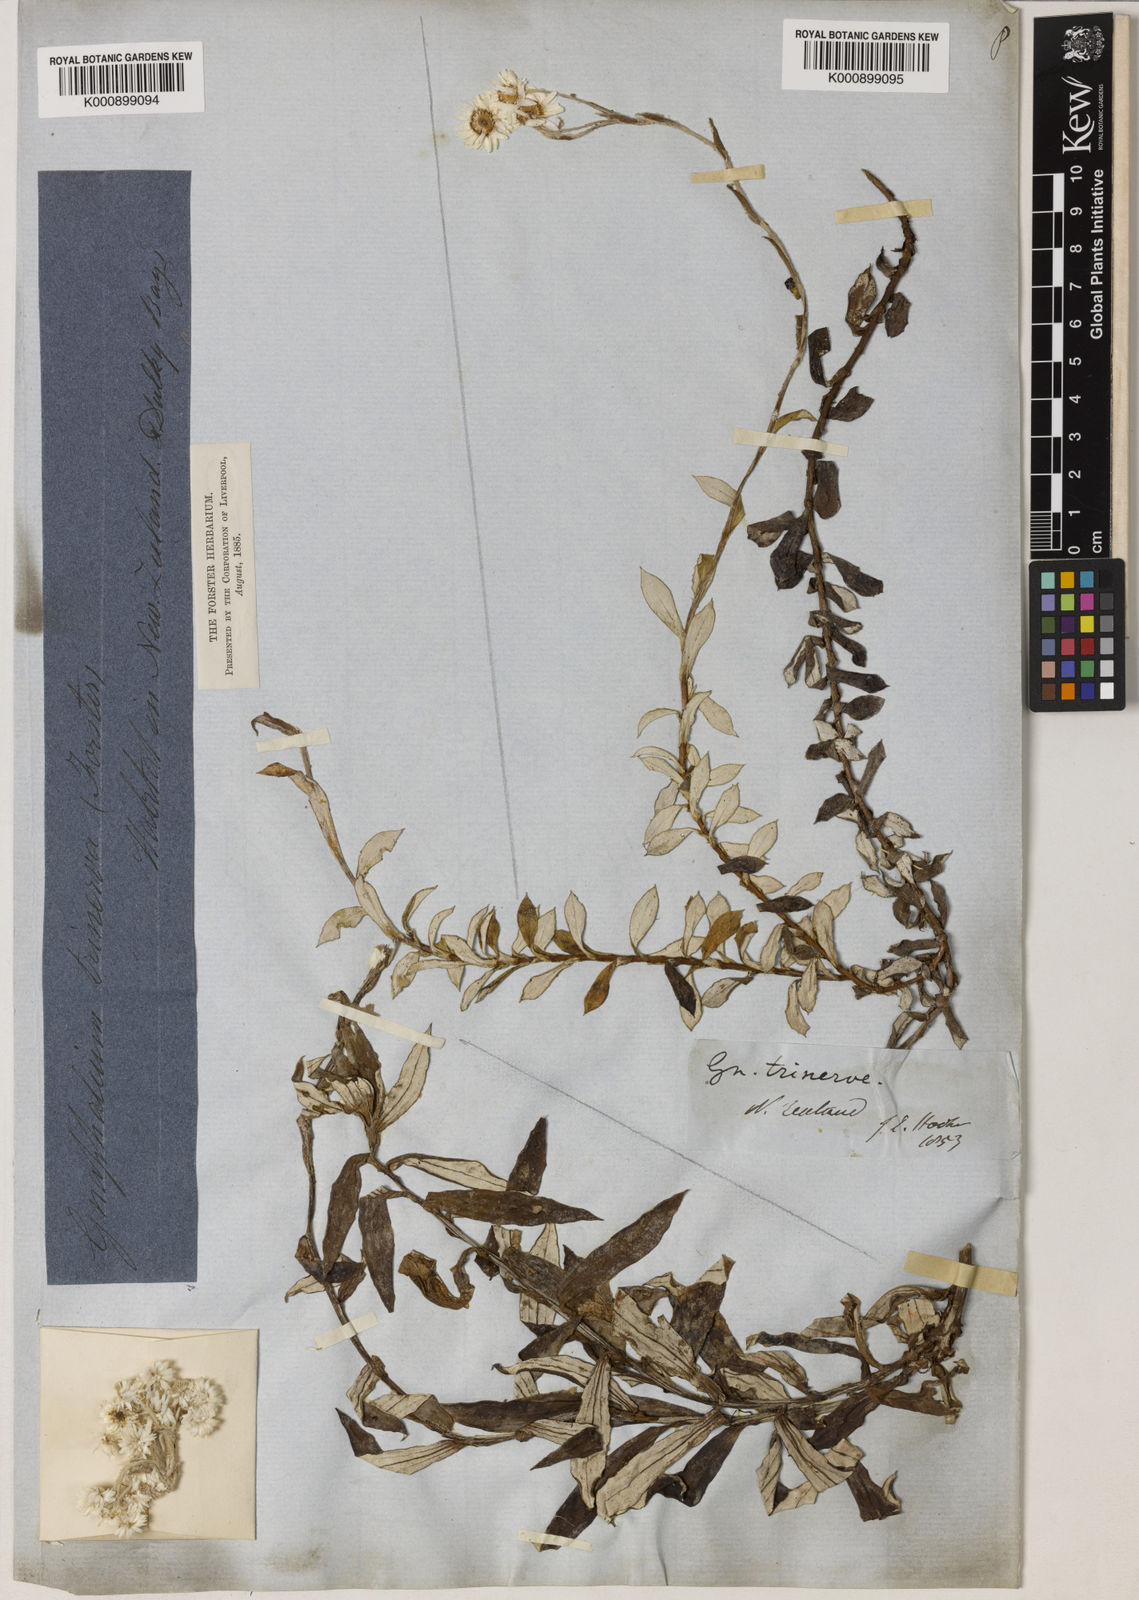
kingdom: Plantae
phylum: Tracheophyta
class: Magnoliopsida
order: Asterales
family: Asteraceae
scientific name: Asteraceae
